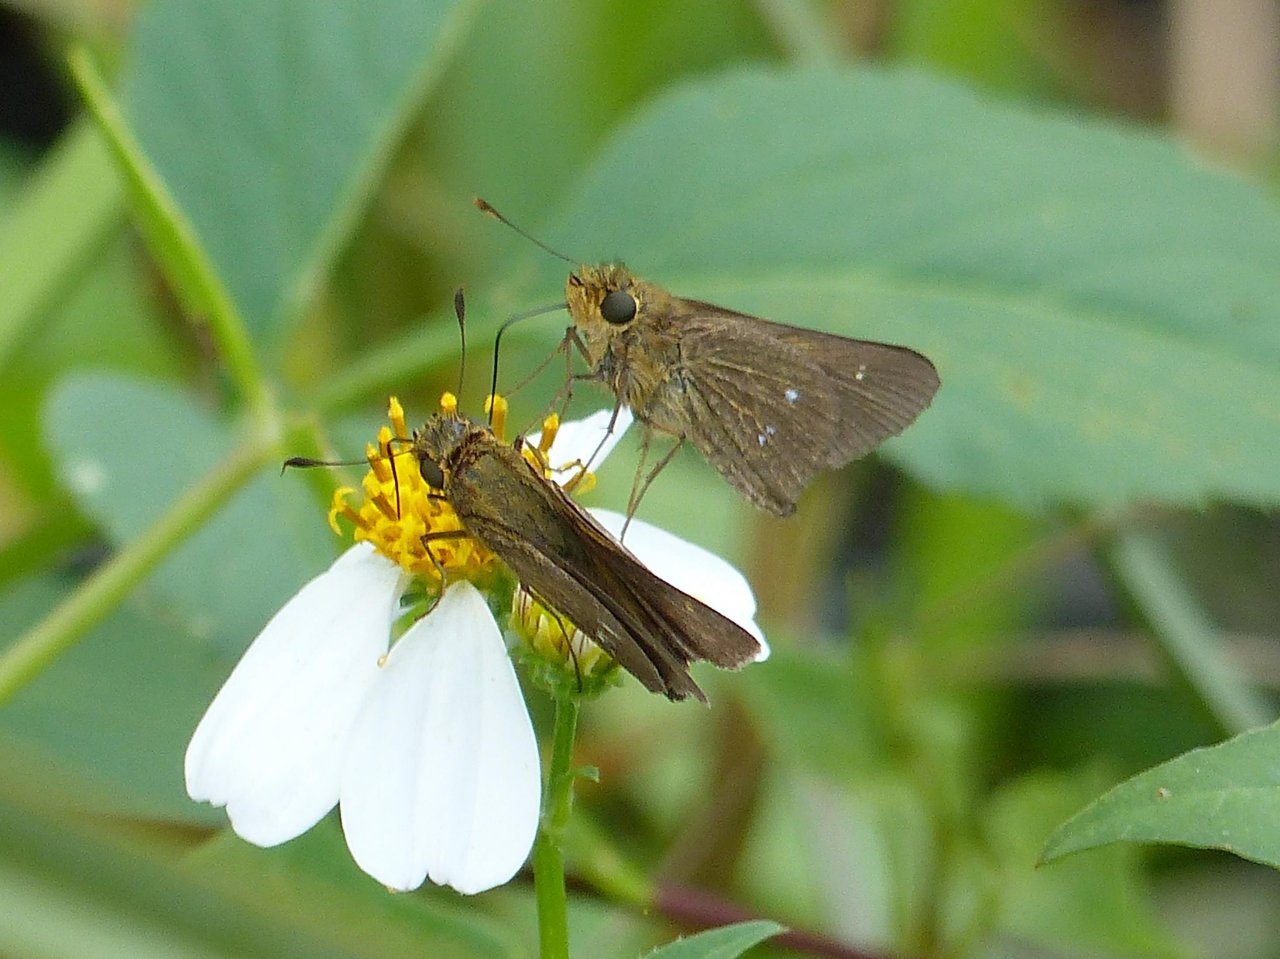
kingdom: Animalia
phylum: Arthropoda
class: Insecta
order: Lepidoptera
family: Hesperiidae
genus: Panoquina
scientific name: Panoquina panoquinoides
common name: Obscure Skipper
